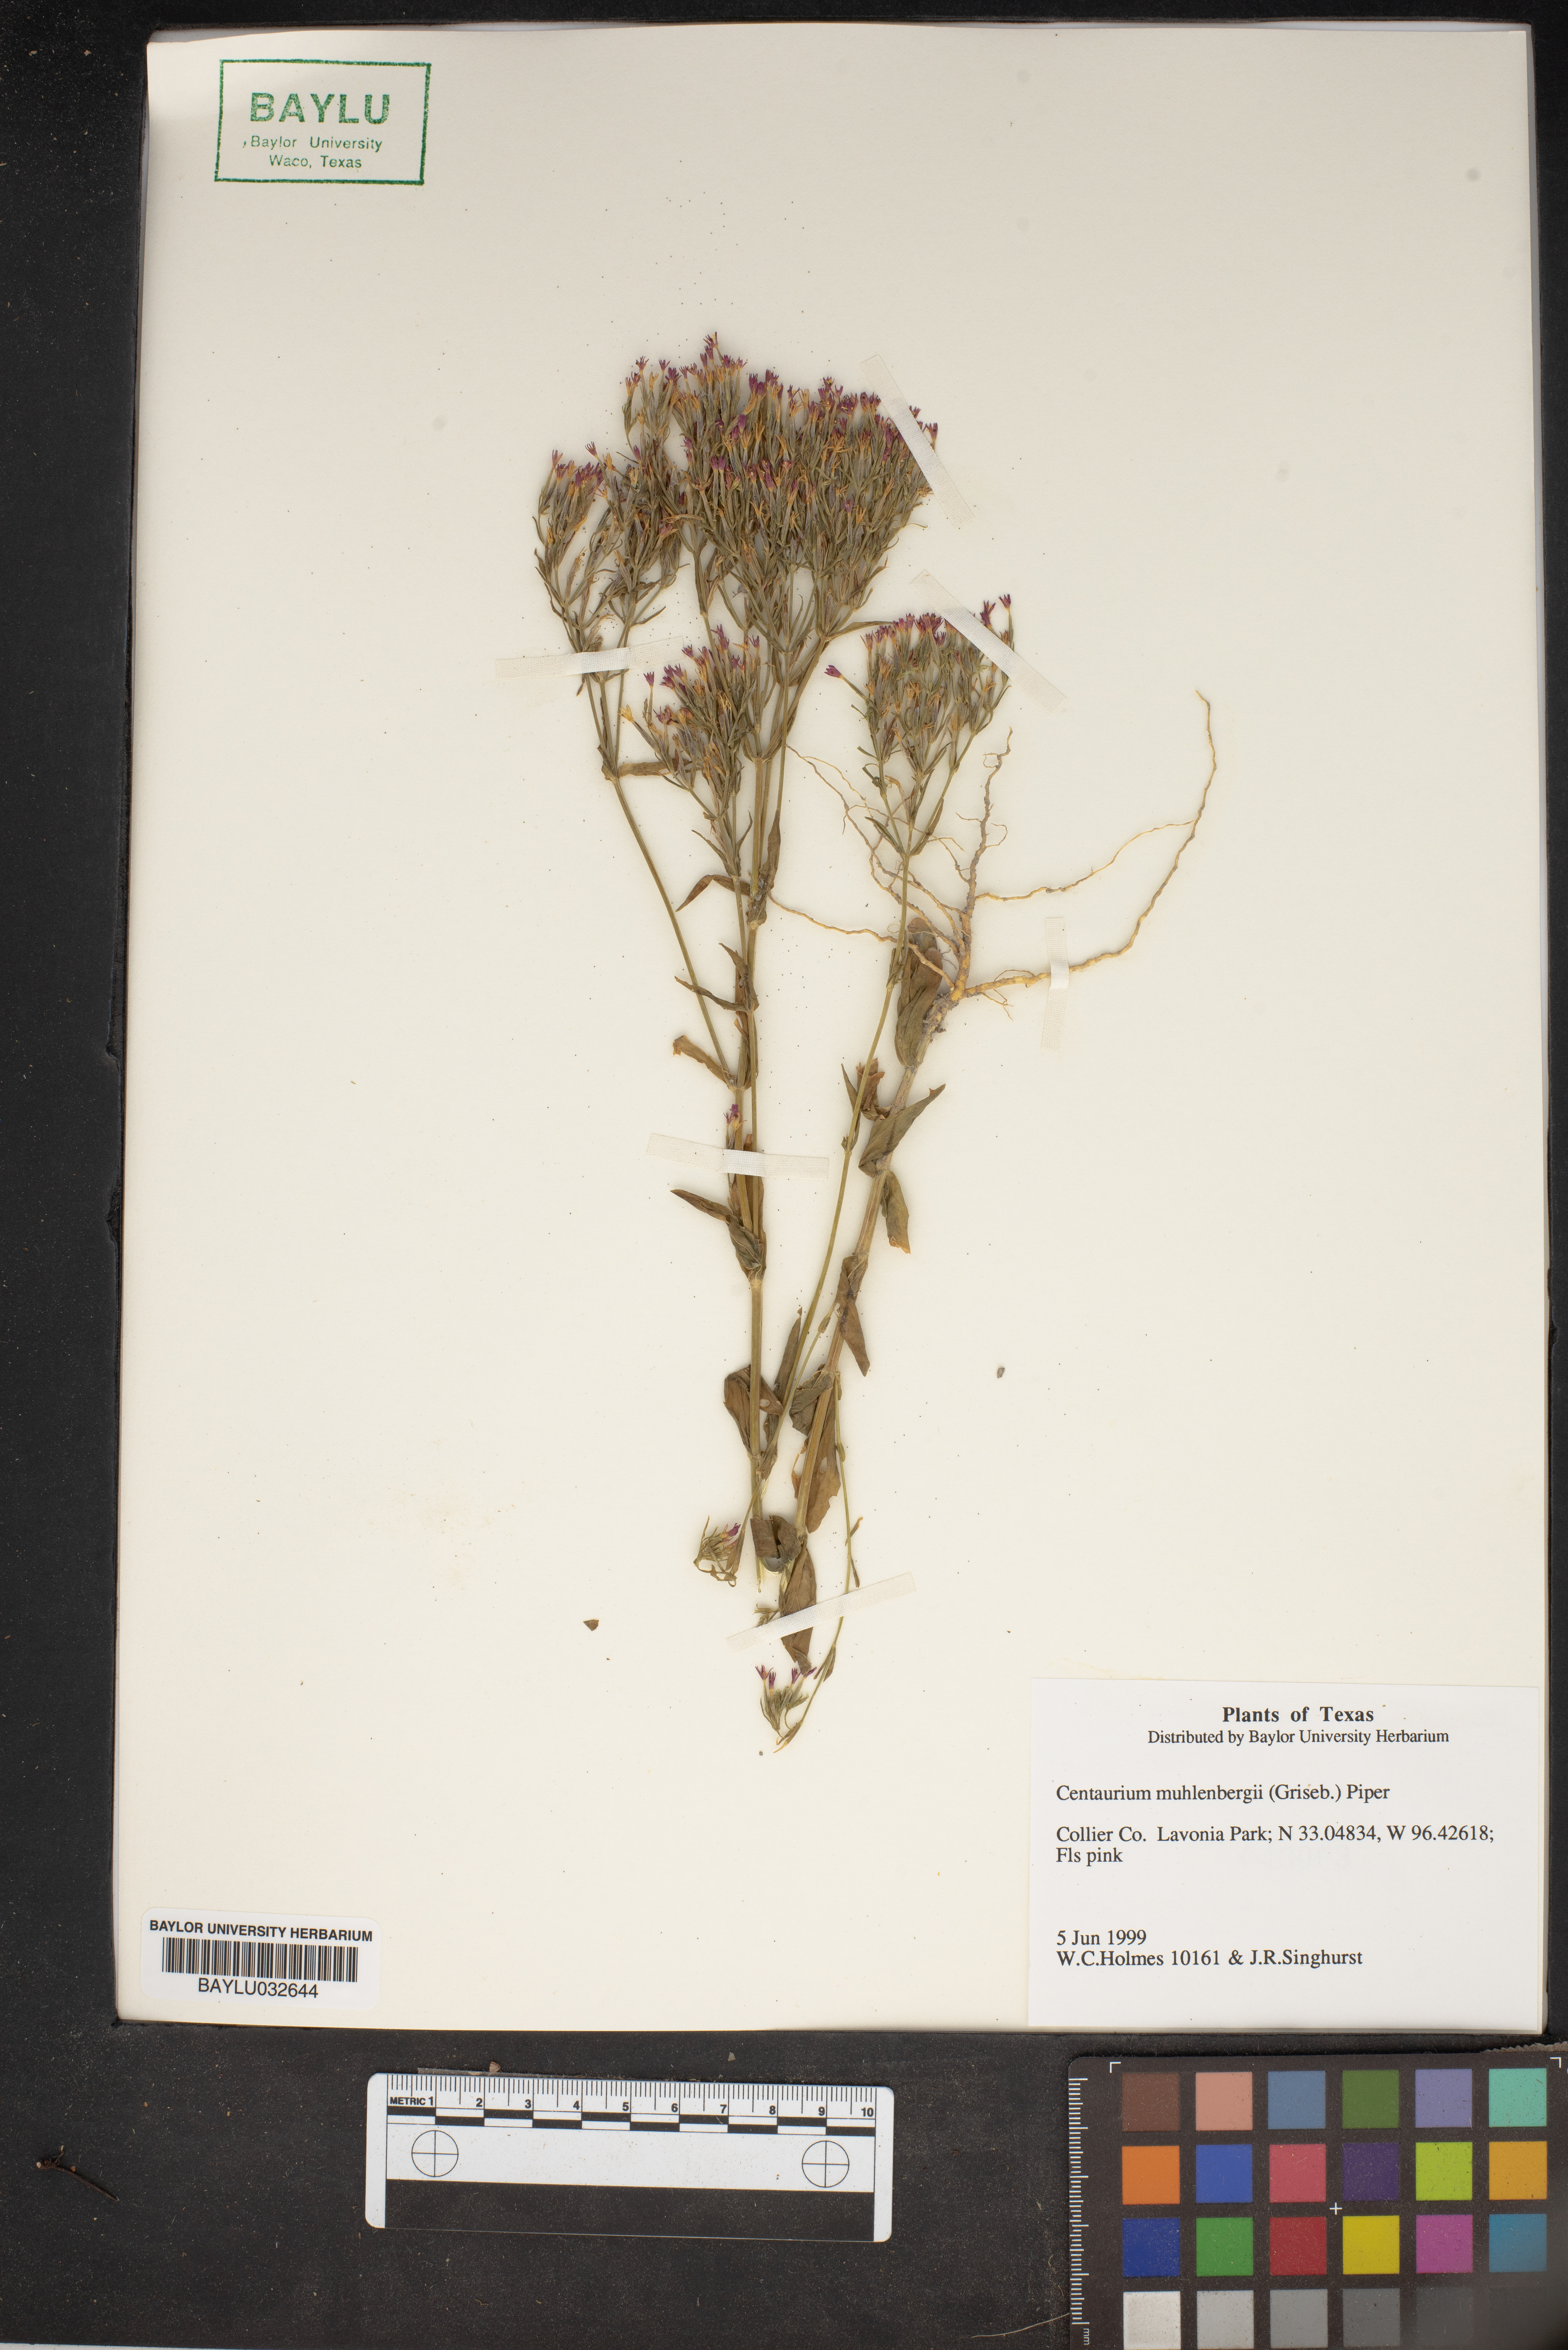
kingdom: Plantae
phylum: Tracheophyta
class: Magnoliopsida
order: Gentianales
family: Gentianaceae
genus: Zeltnera
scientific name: Zeltnera muhlenbergii
